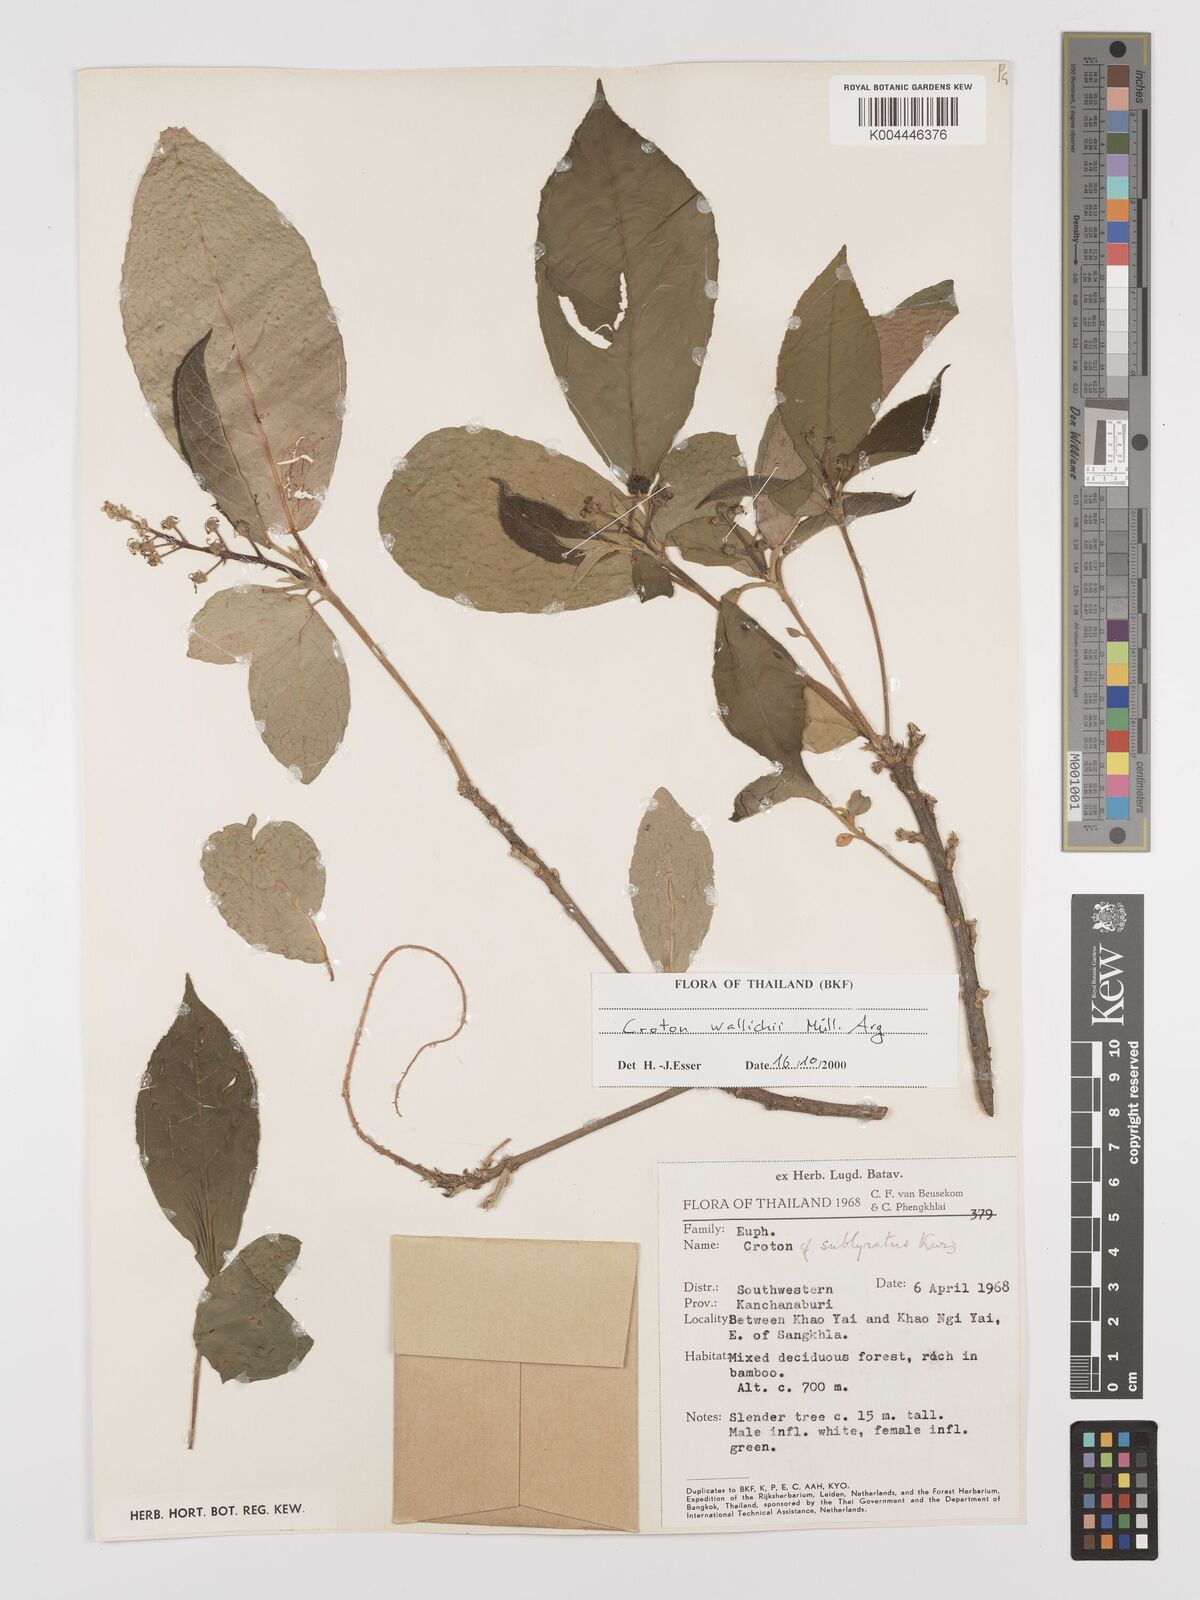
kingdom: Plantae
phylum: Tracheophyta
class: Magnoliopsida
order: Malpighiales
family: Euphorbiaceae
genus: Croton
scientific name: Croton wallichii
